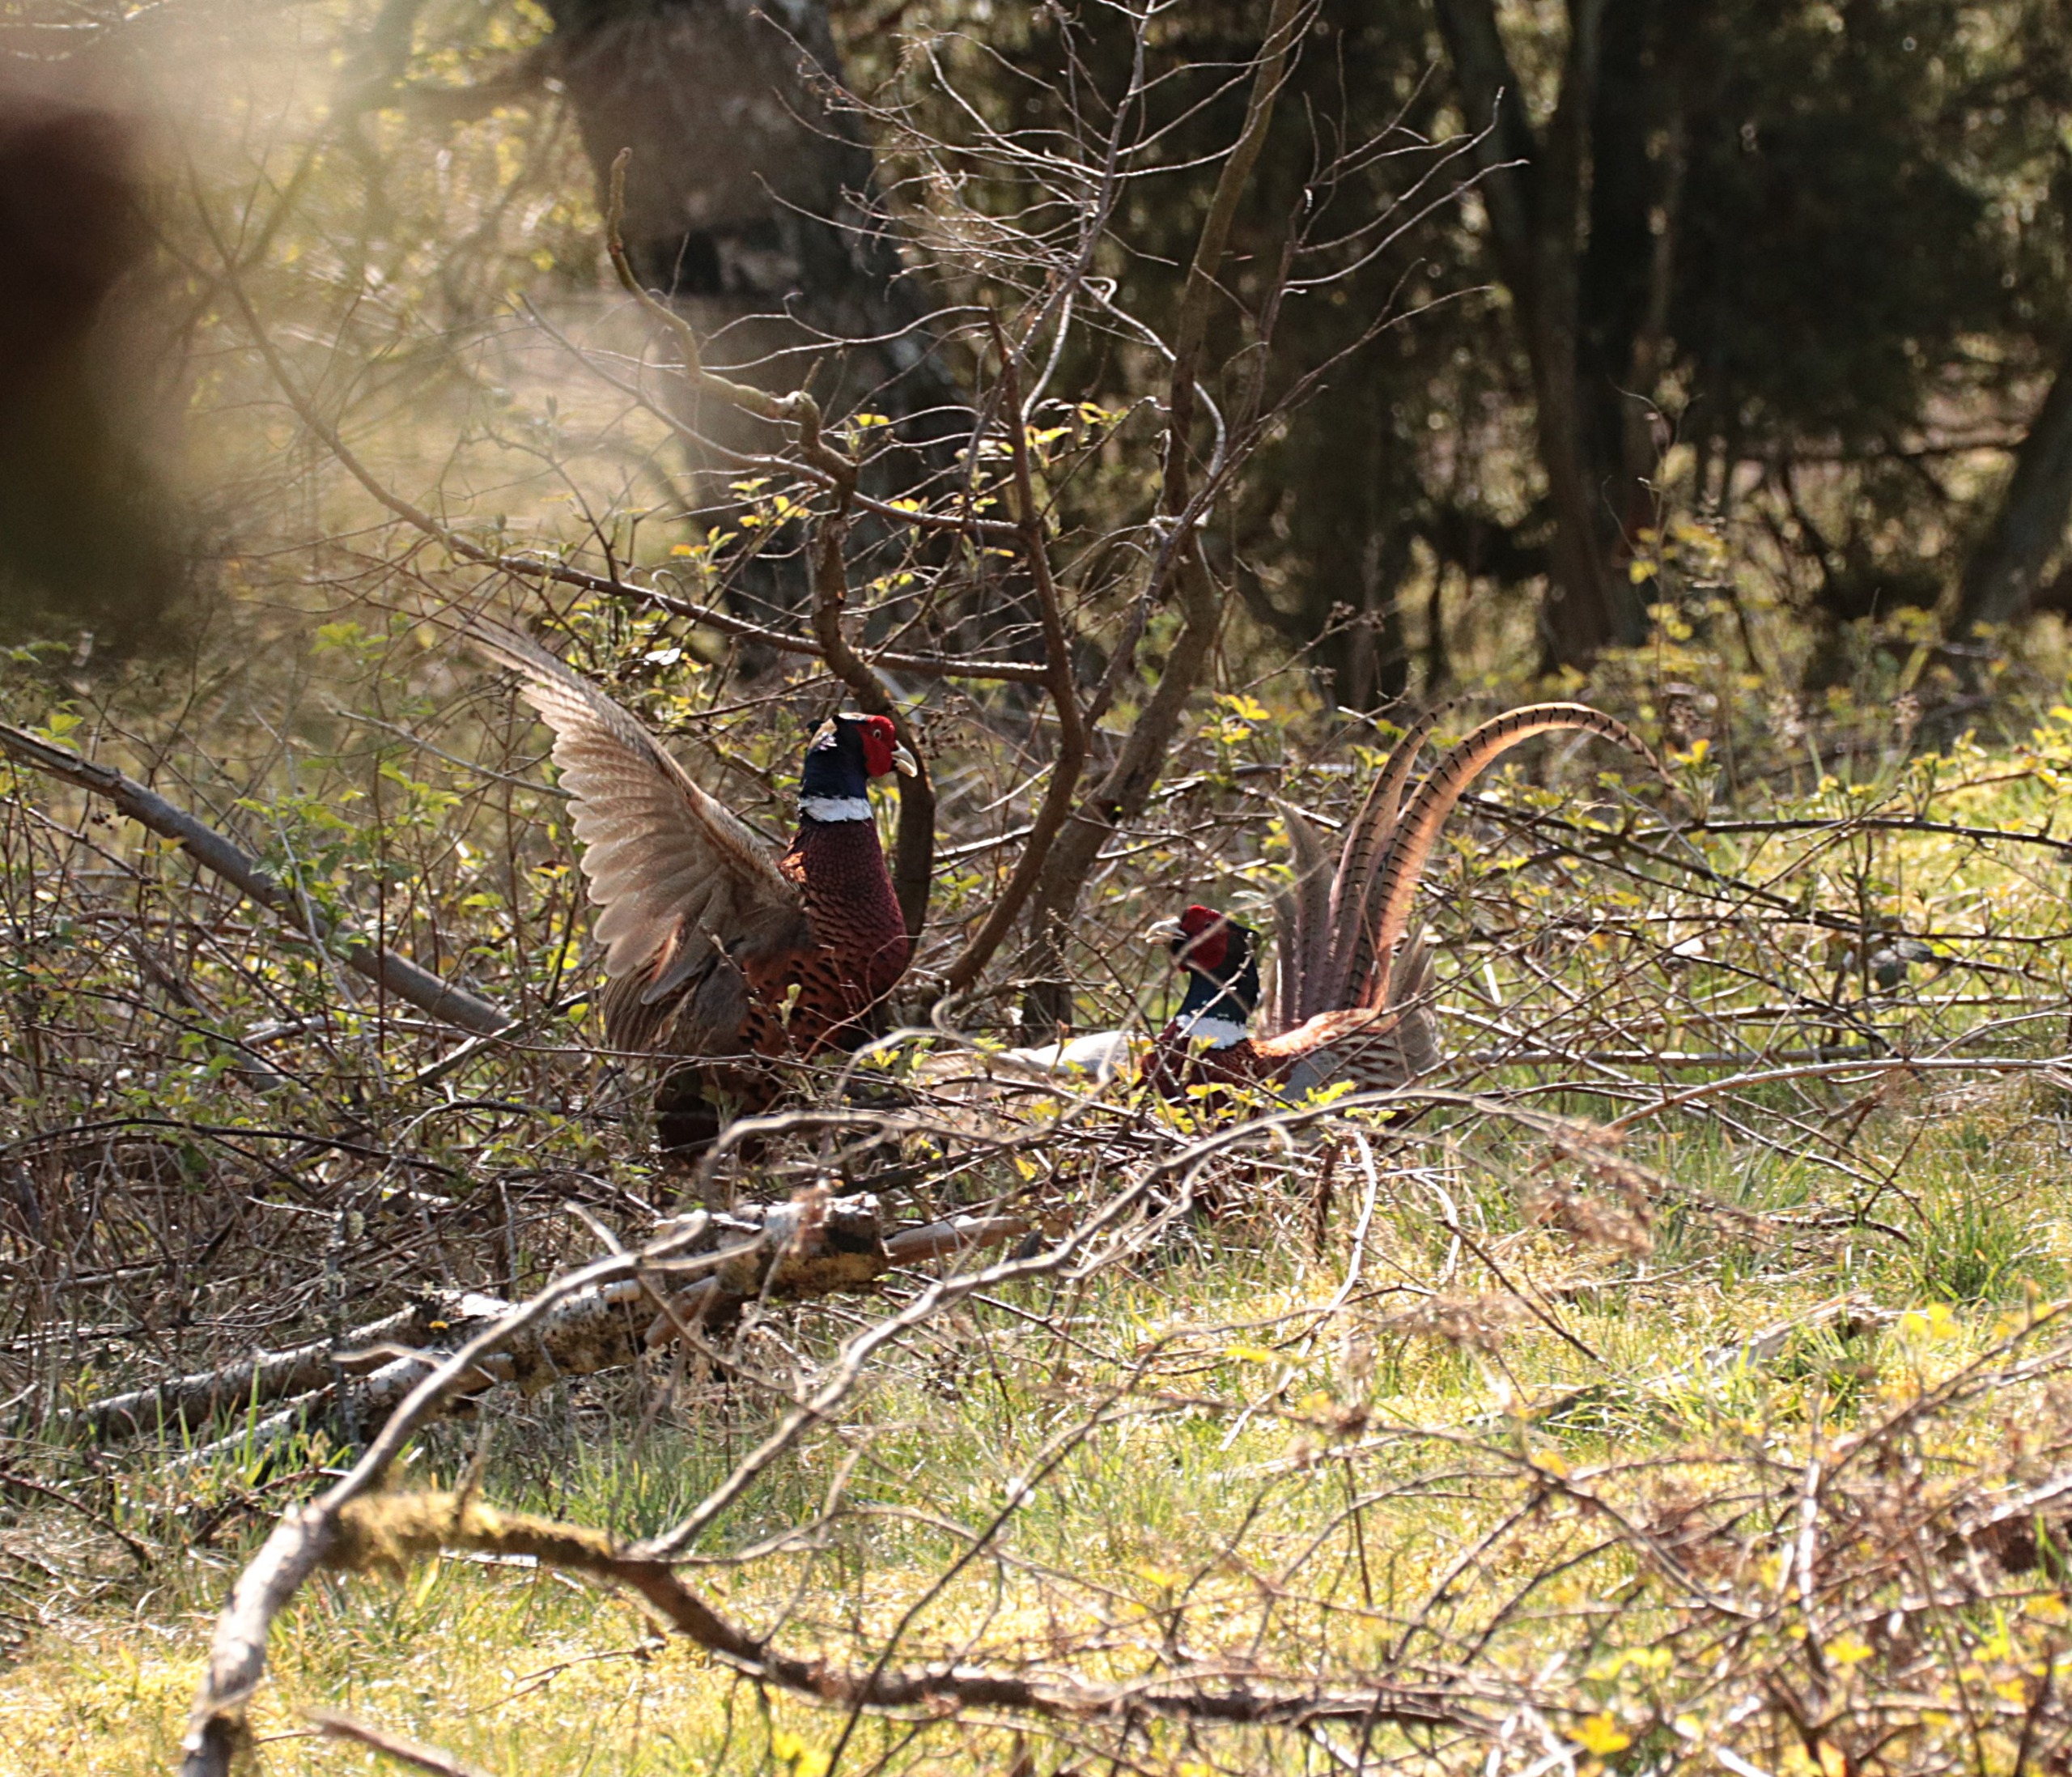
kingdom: Animalia
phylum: Chordata
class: Aves
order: Galliformes
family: Phasianidae
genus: Phasianus
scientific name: Phasianus colchicus
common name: Fasan
